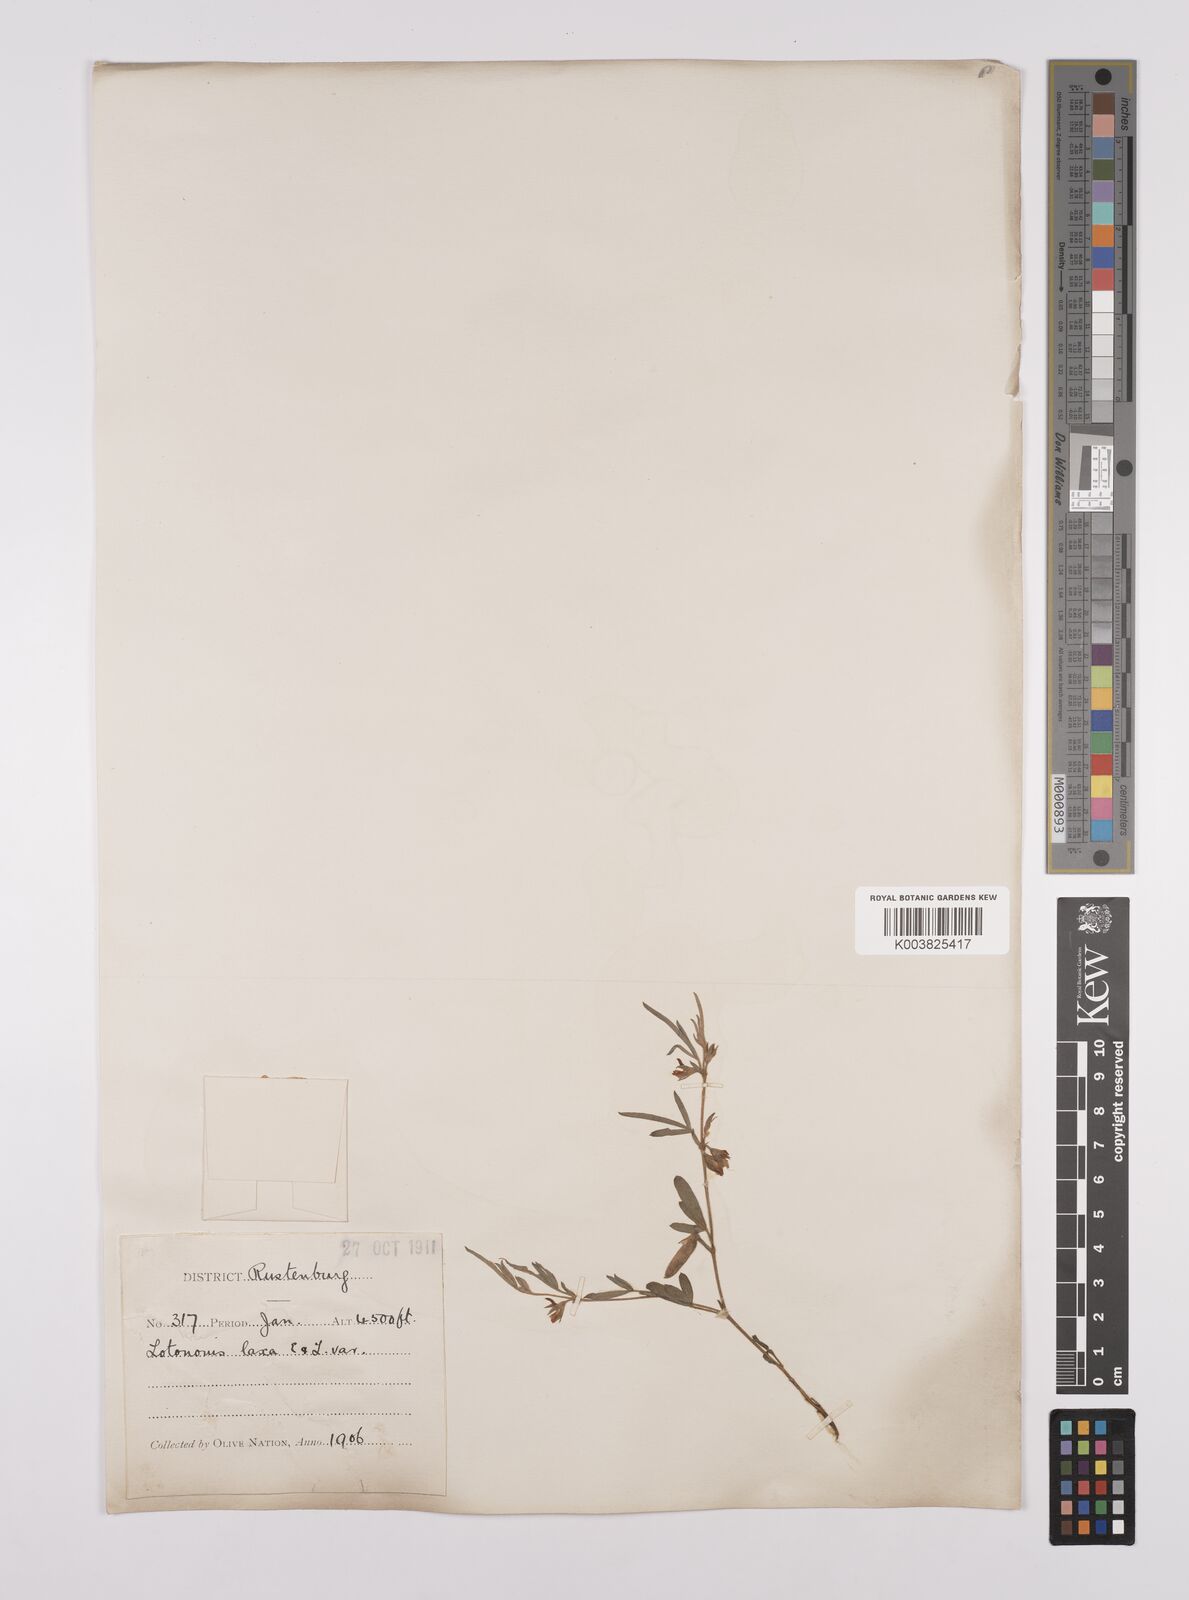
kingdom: Plantae
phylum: Tracheophyta
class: Magnoliopsida
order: Fabales
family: Fabaceae
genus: Lotononis
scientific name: Lotononis laxa
